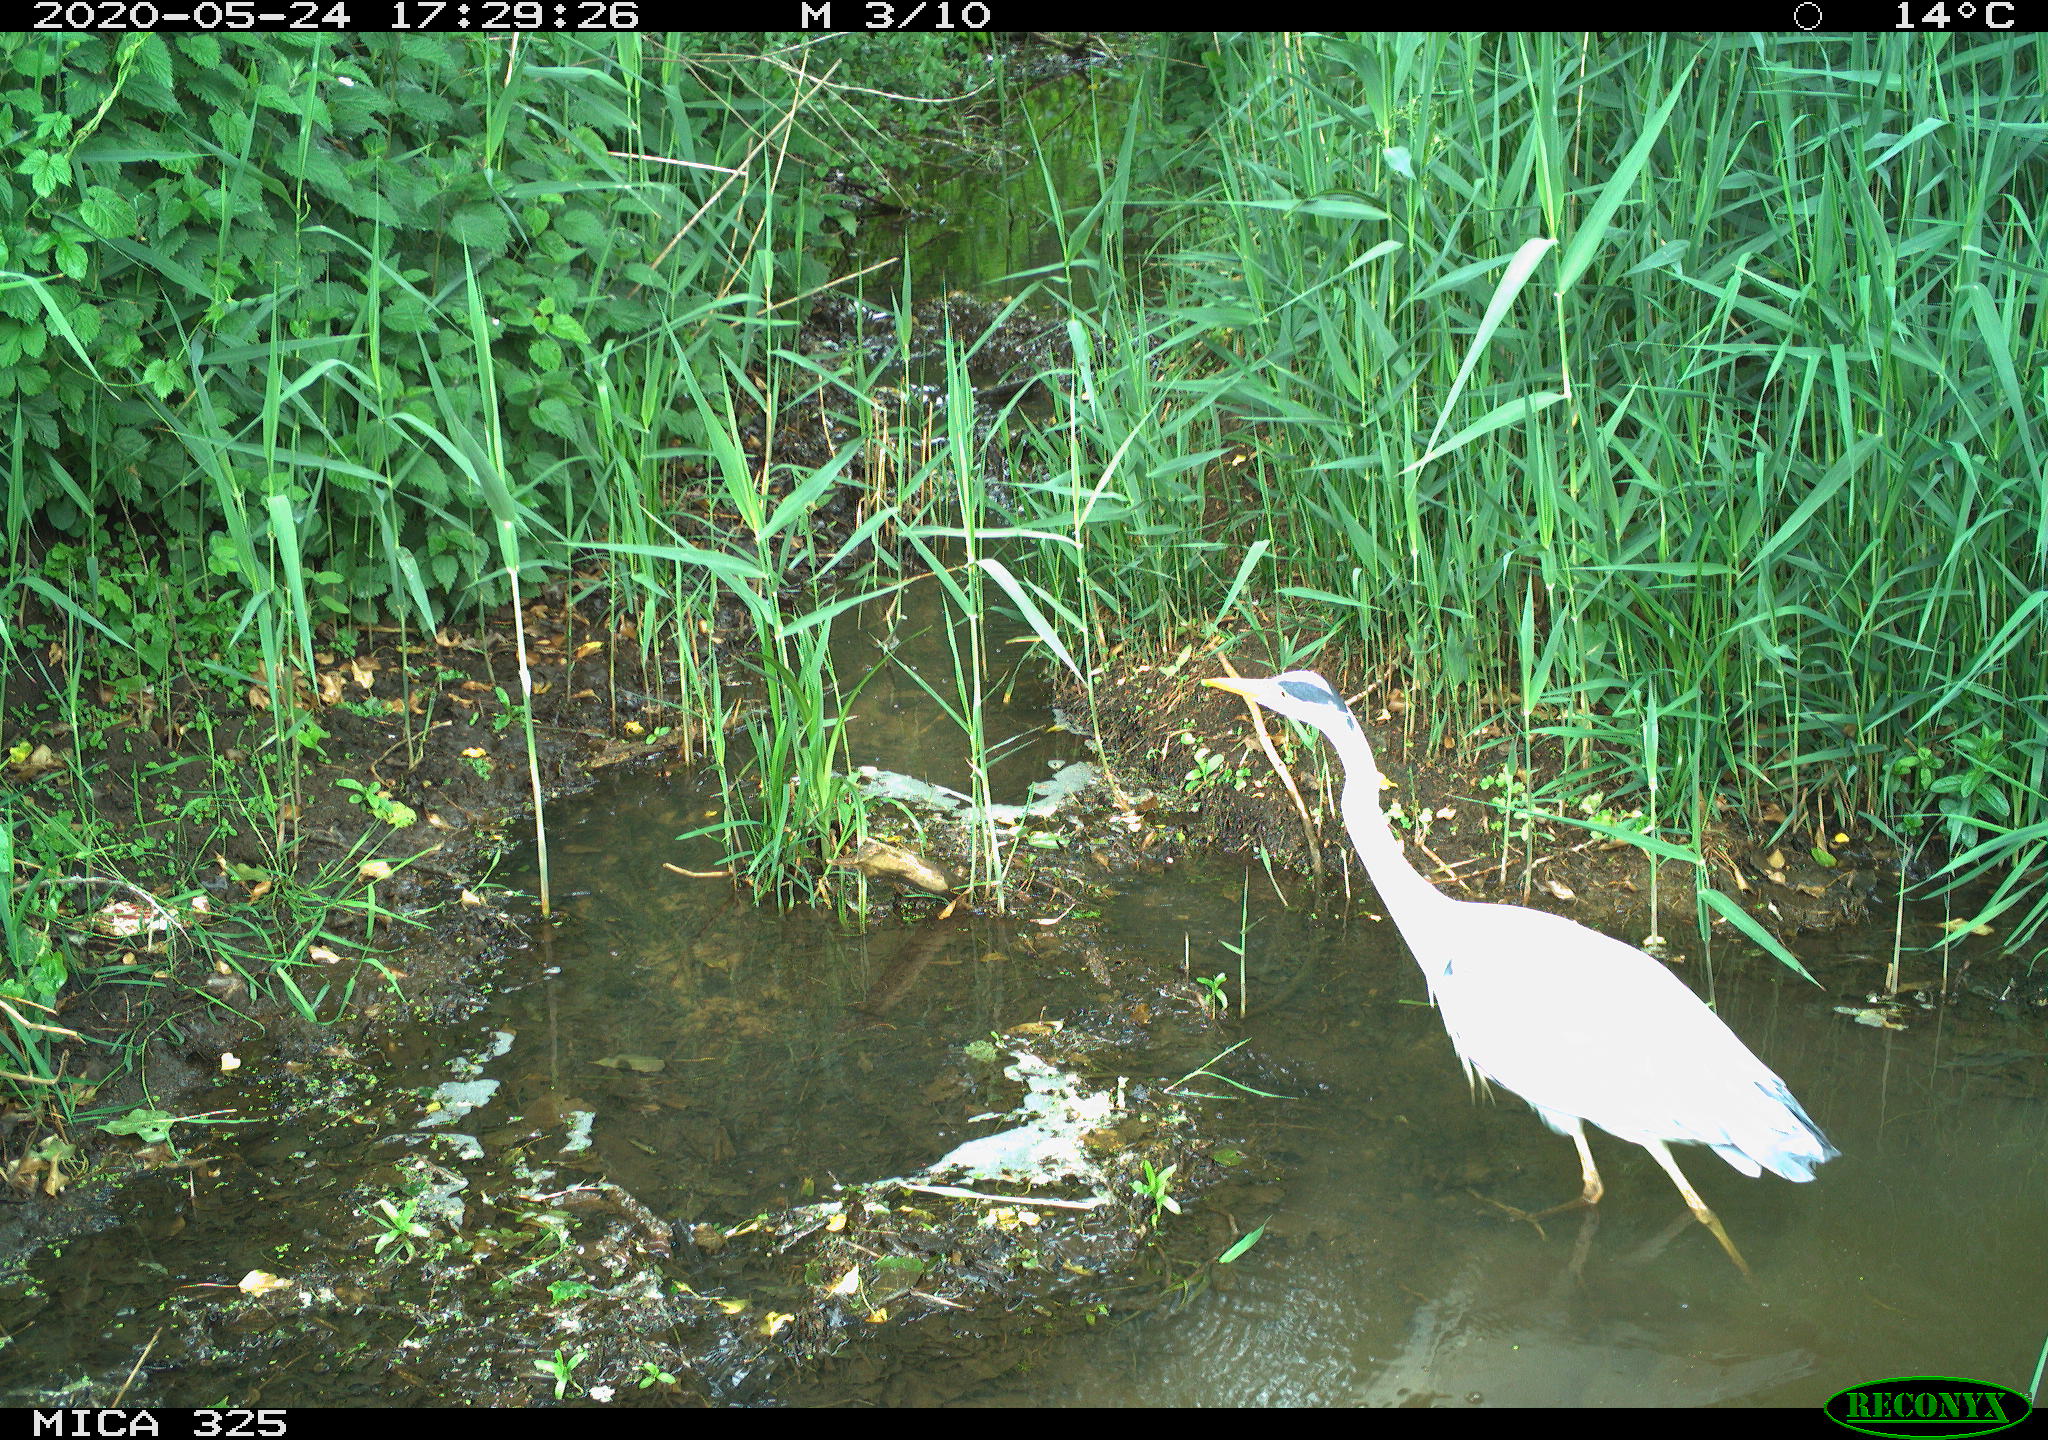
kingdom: Animalia
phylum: Chordata
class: Aves
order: Pelecaniformes
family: Ardeidae
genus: Ardea
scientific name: Ardea cinerea
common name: Grey heron
